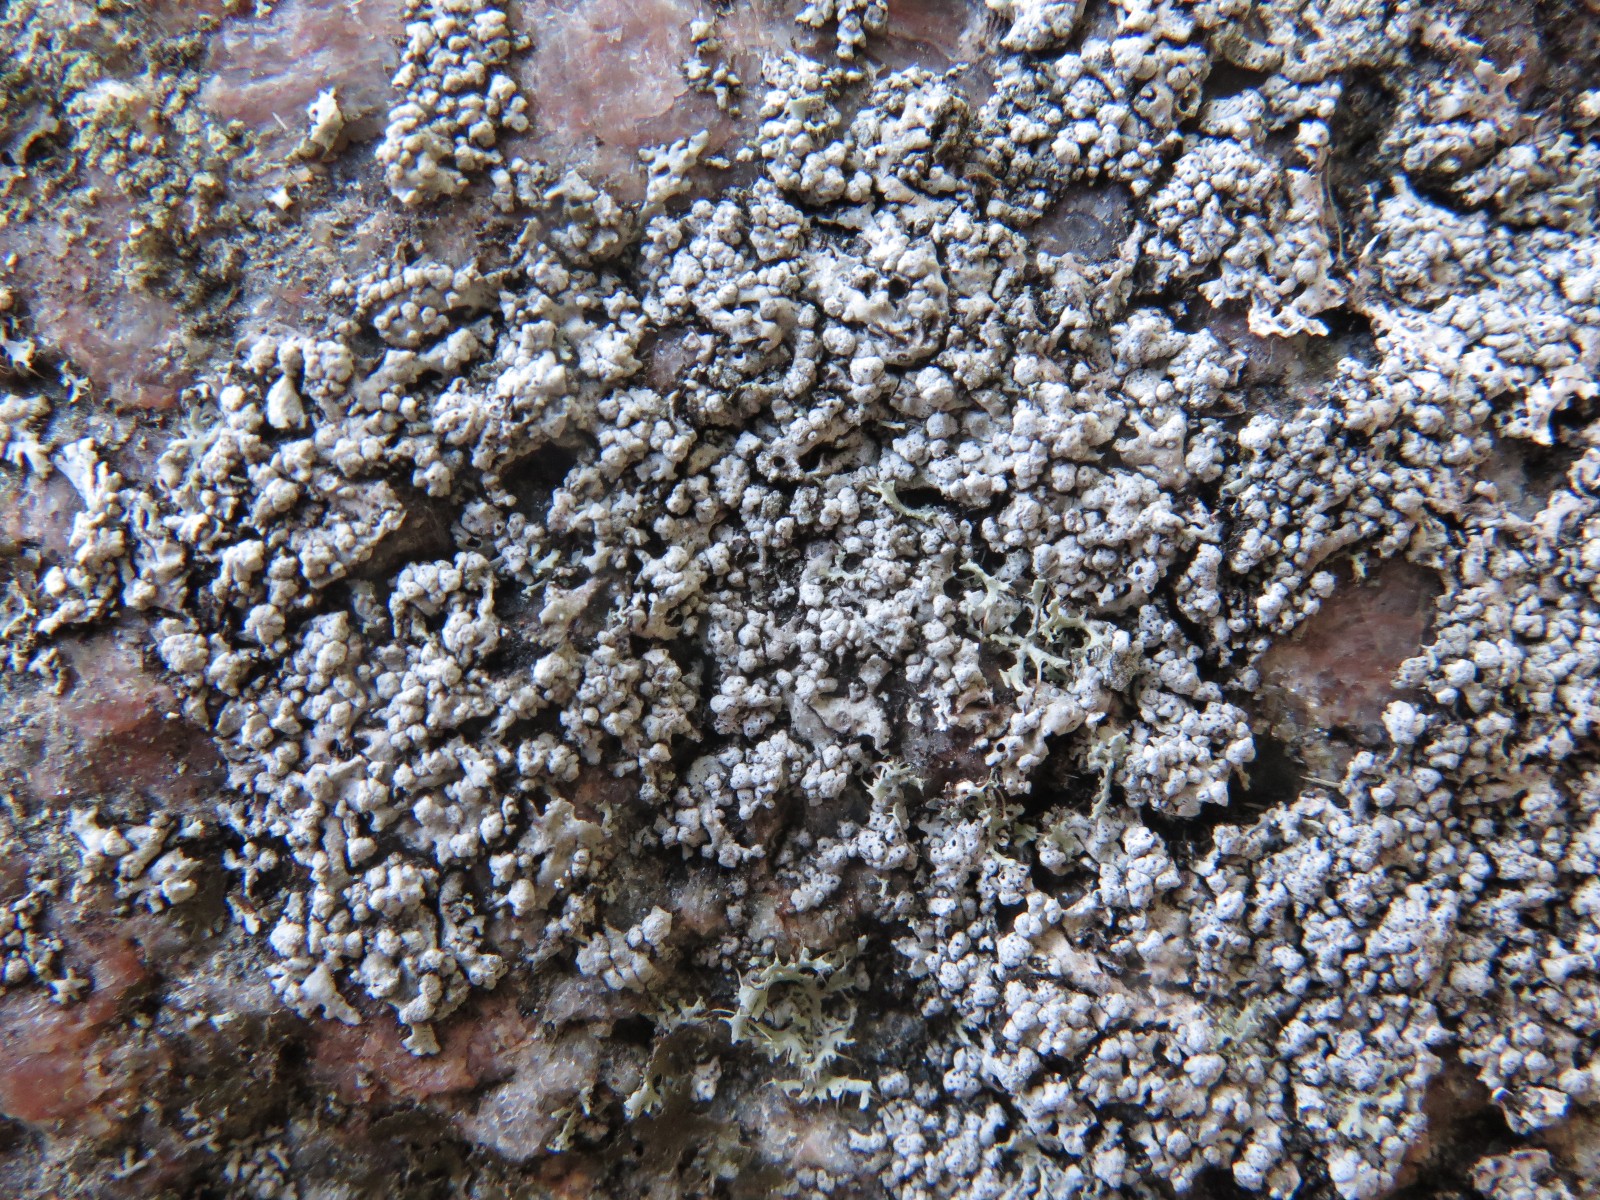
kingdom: Fungi
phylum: Ascomycota
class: Lecanoromycetes
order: Caliciales
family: Physciaceae
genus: Physcia
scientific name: Physcia adscendens
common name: hætte-rosetlav
